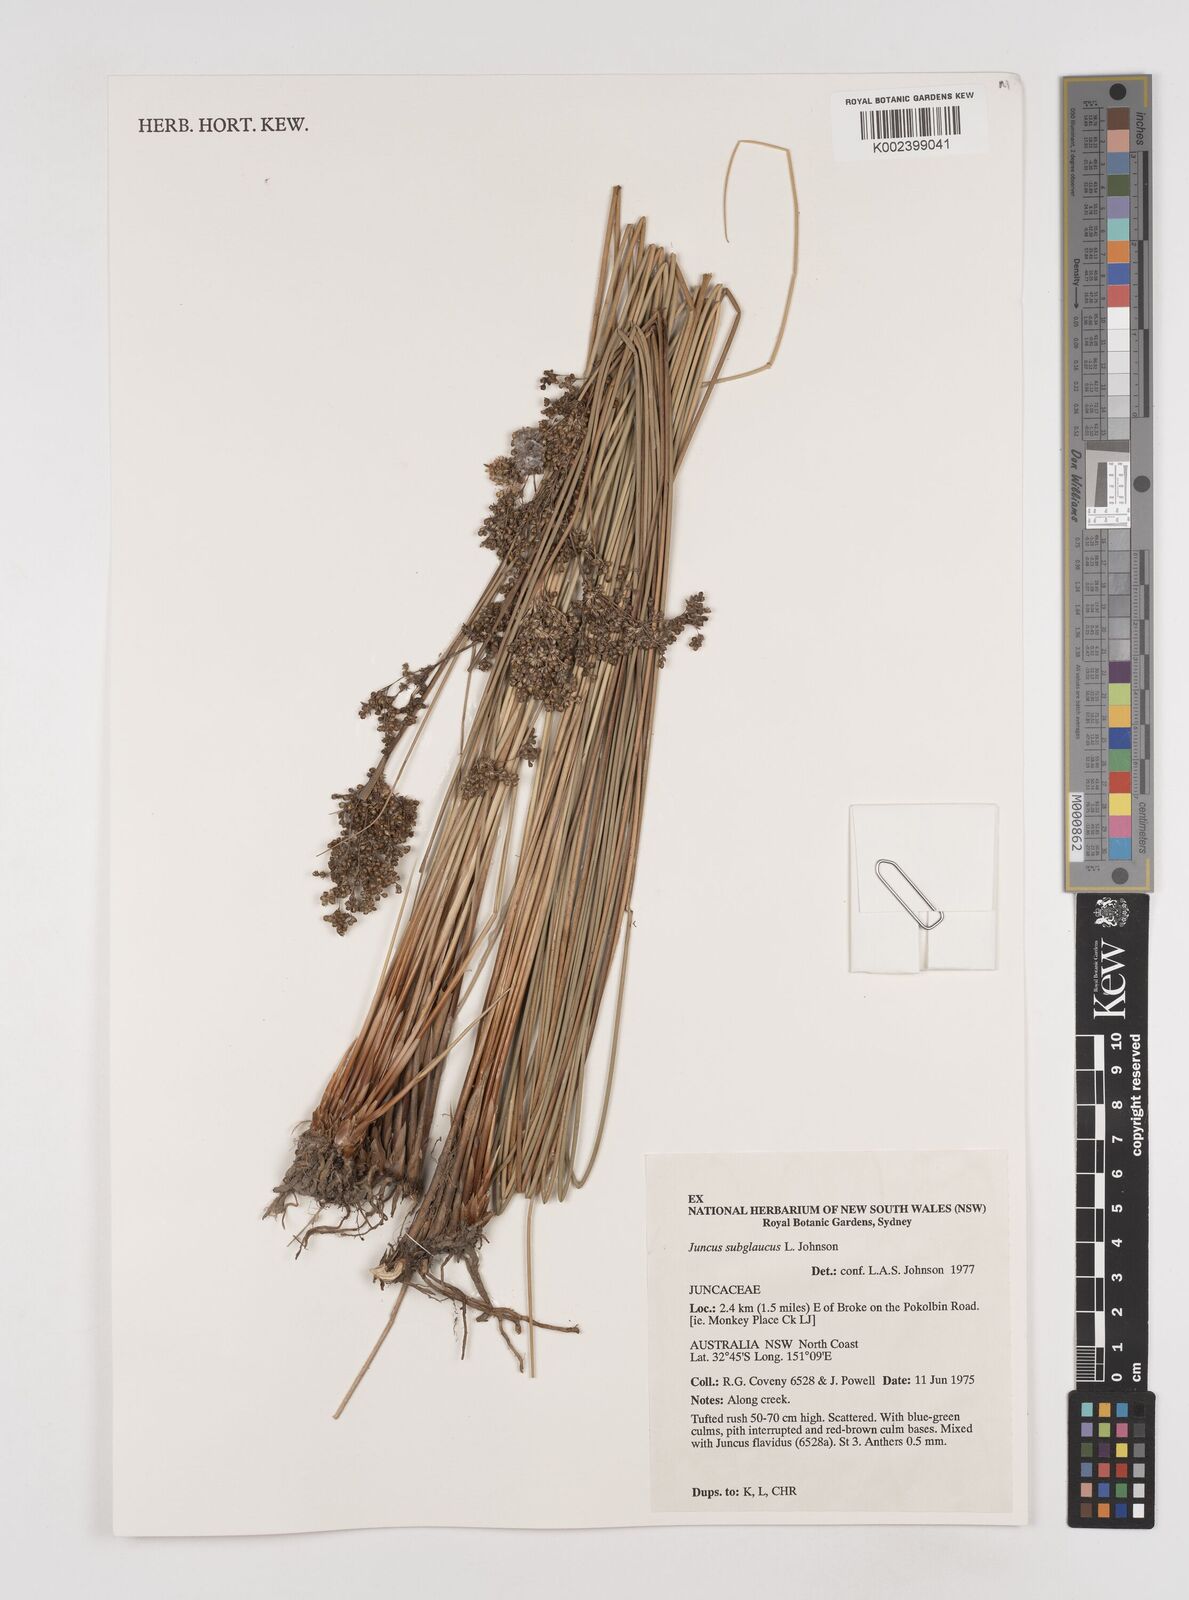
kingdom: Plantae
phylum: Tracheophyta
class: Liliopsida
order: Poales
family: Juncaceae
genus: Juncus
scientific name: Juncus subglaucus
